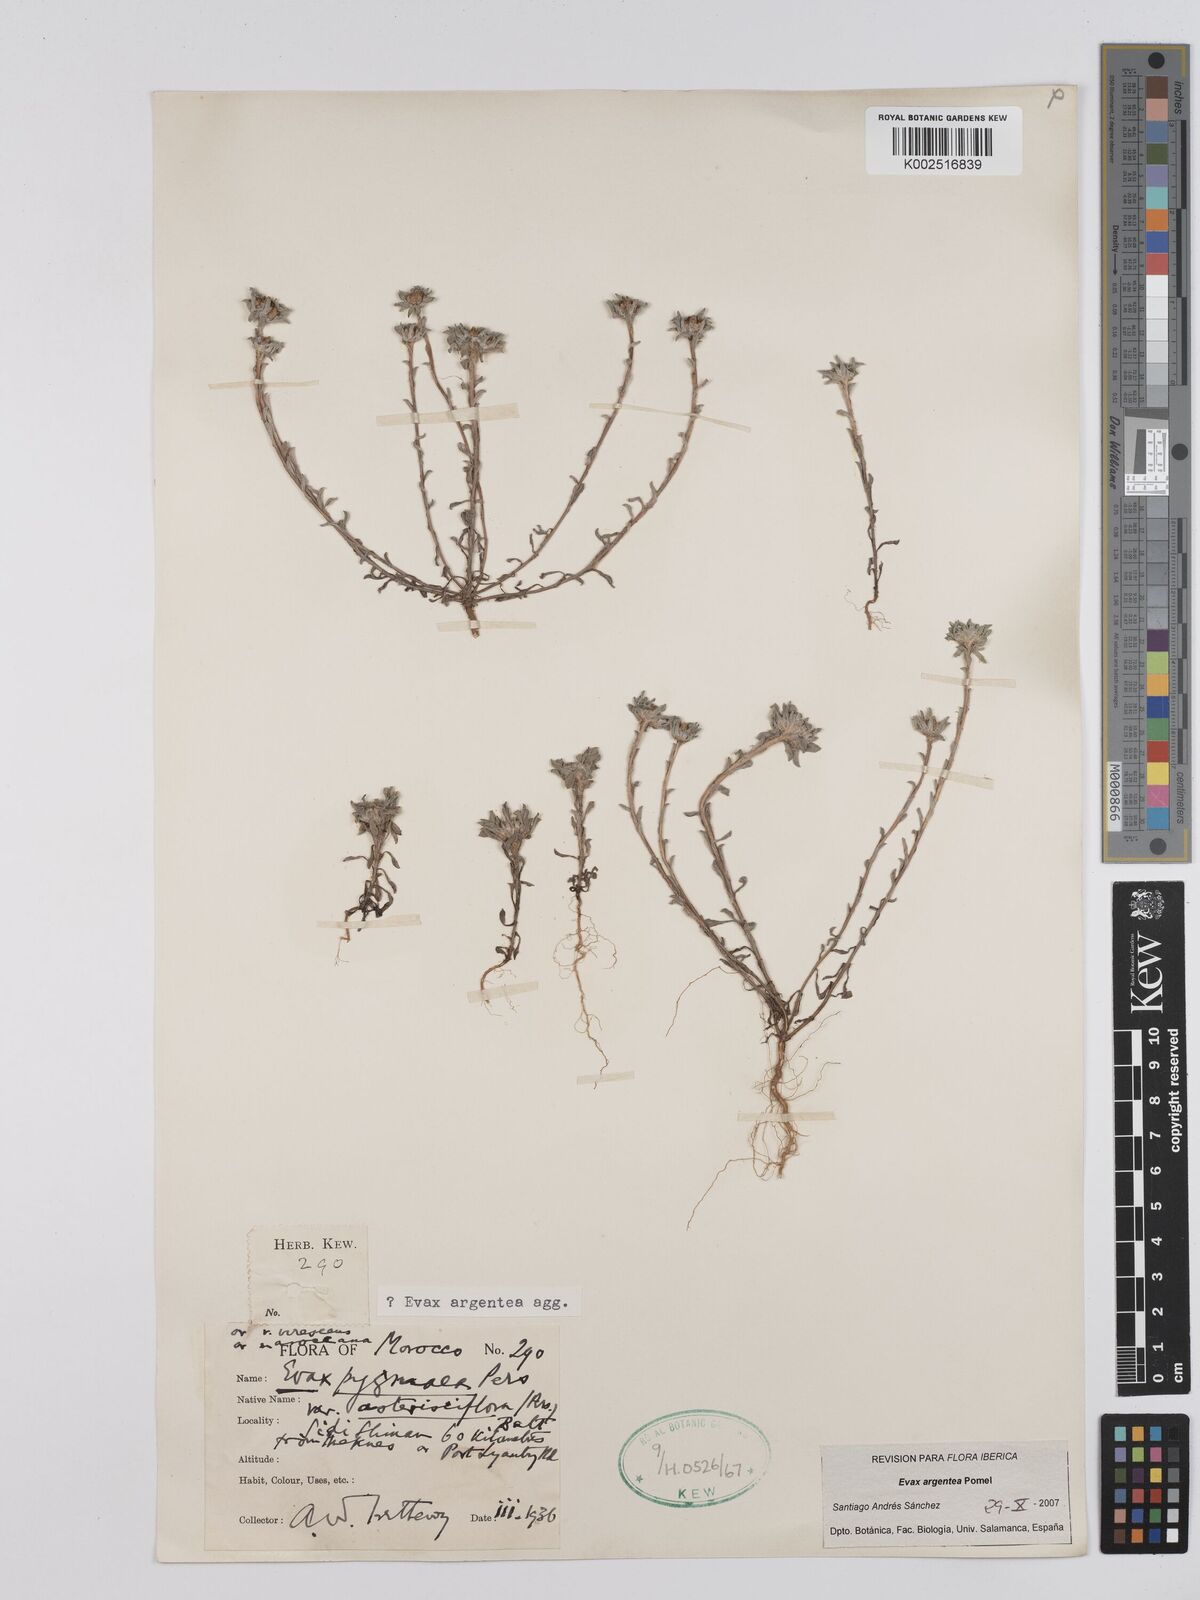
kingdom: Plantae
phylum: Tracheophyta
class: Magnoliopsida
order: Asterales
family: Asteraceae
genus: Filago
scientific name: Filago argentea
